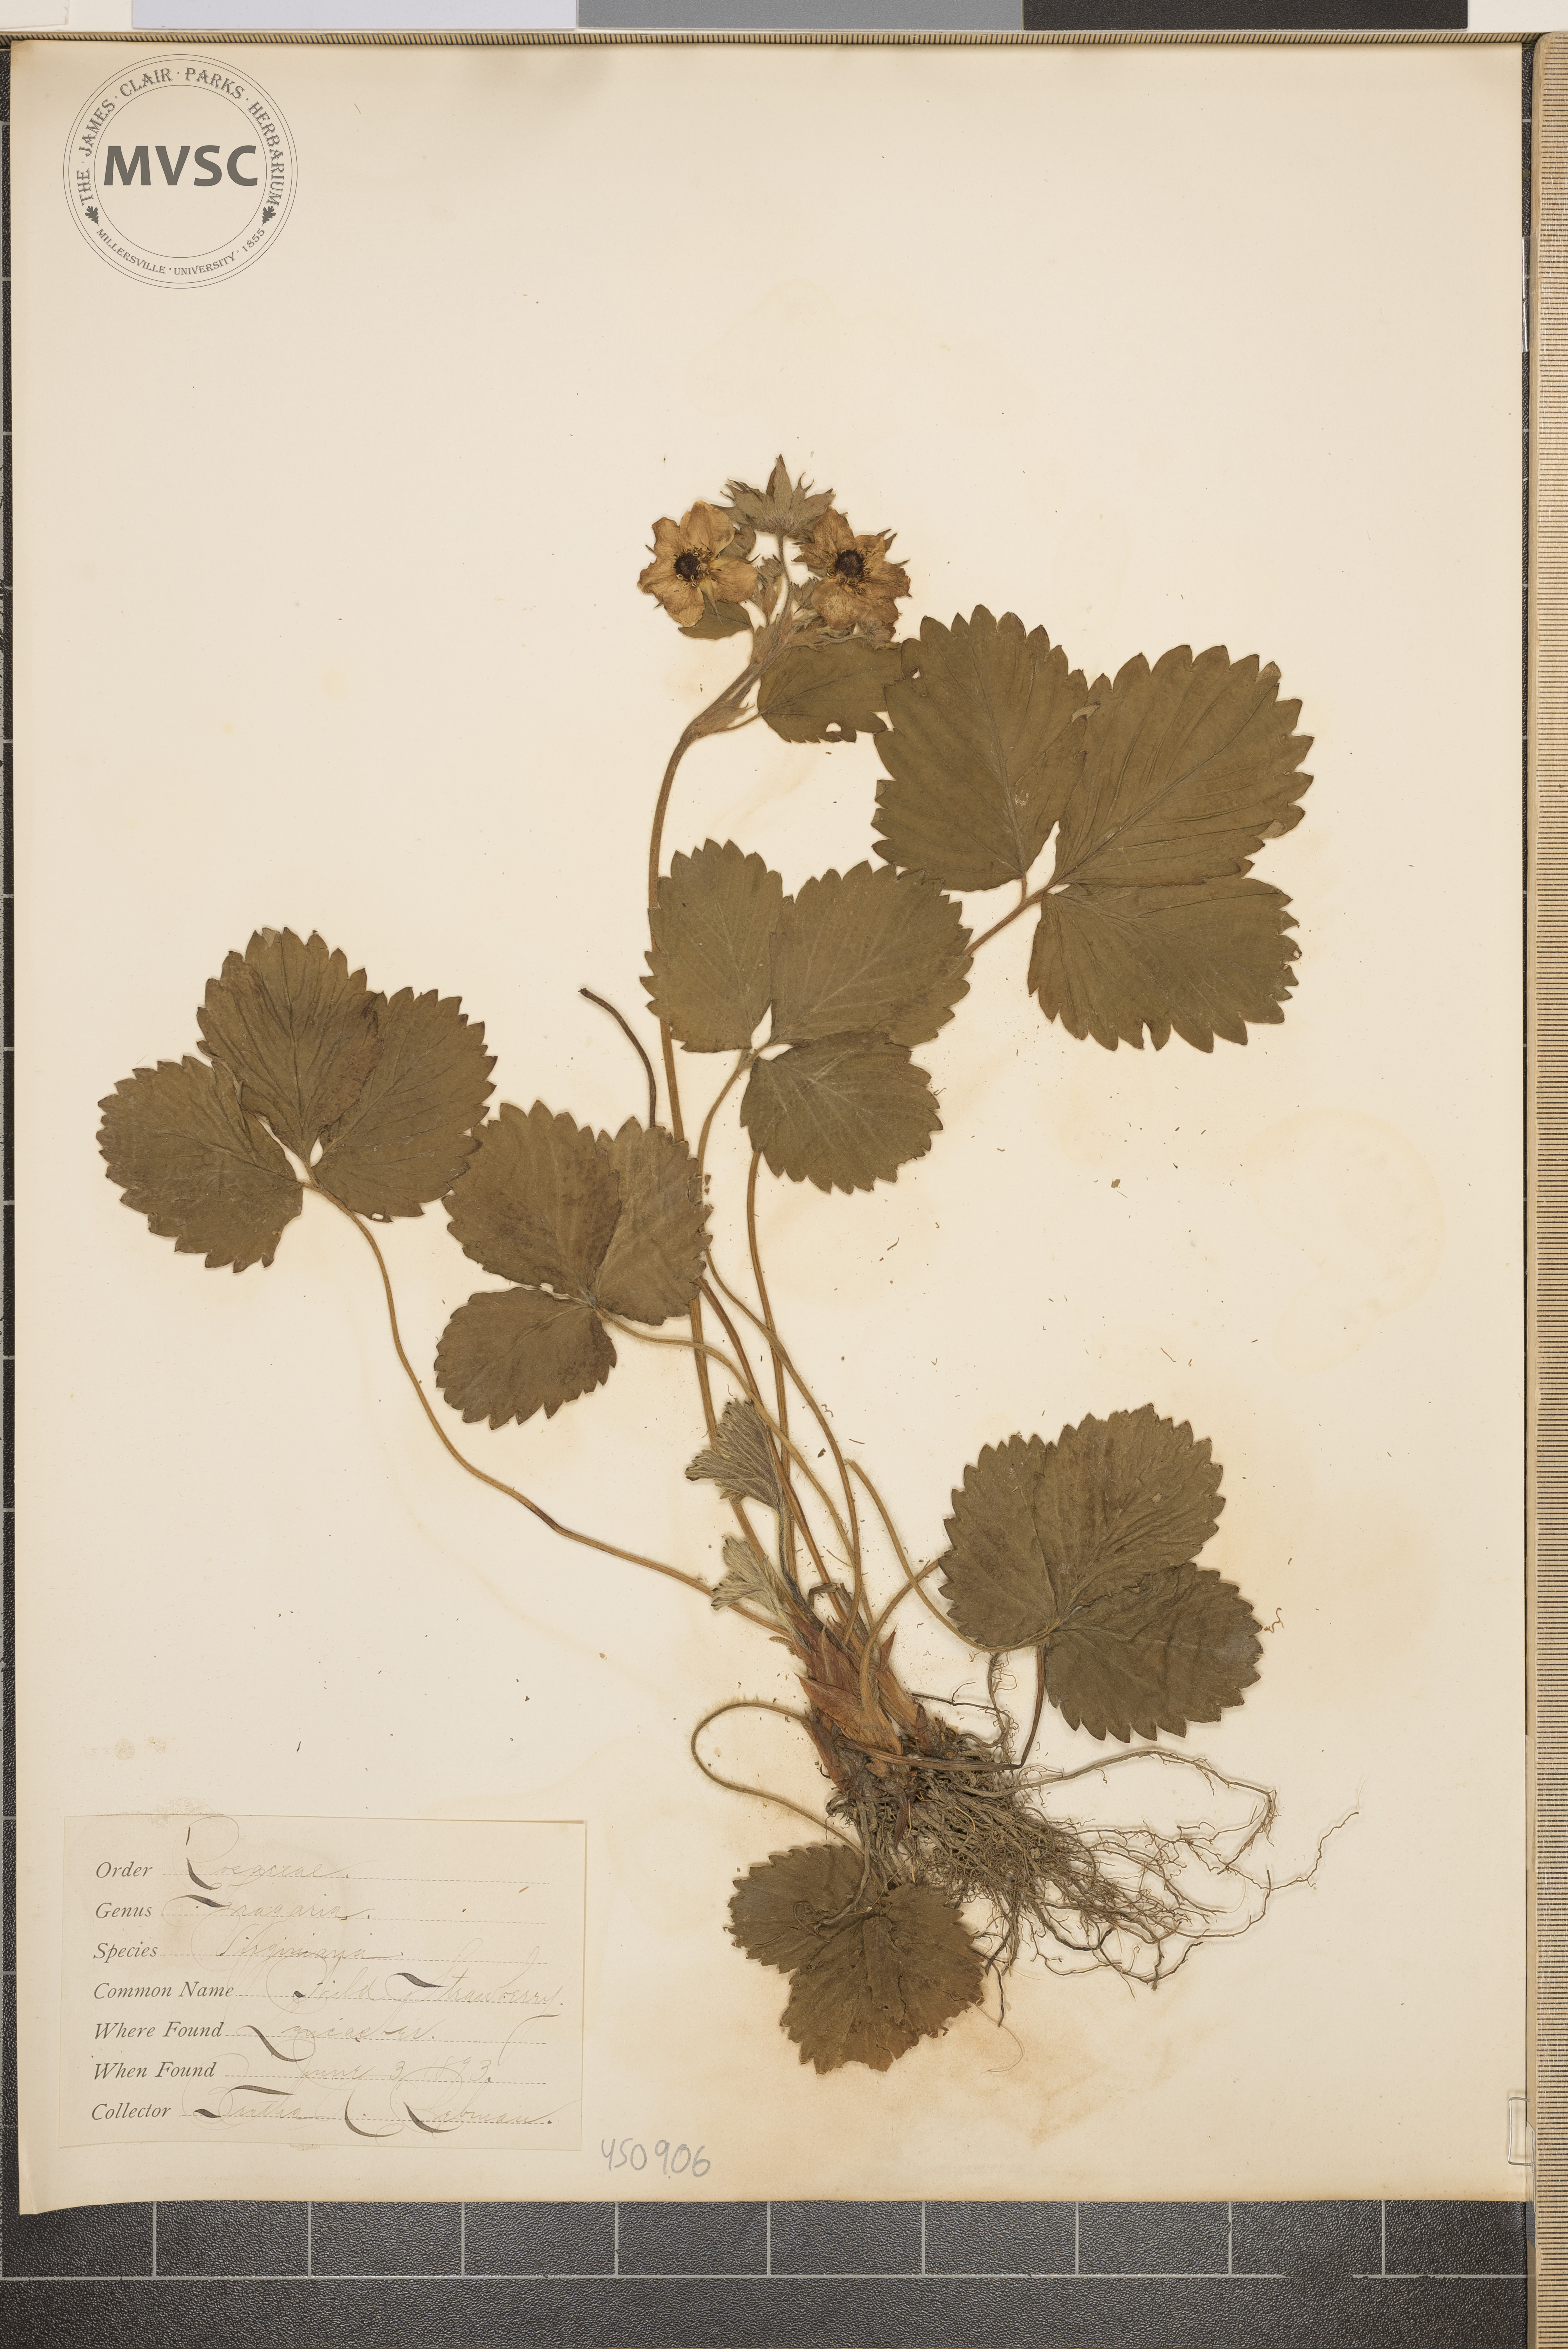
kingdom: Plantae
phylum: Tracheophyta
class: Magnoliopsida
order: Rosales
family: Rosaceae
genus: Fragaria
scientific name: Fragaria virginiana
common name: Wild Strawberry
